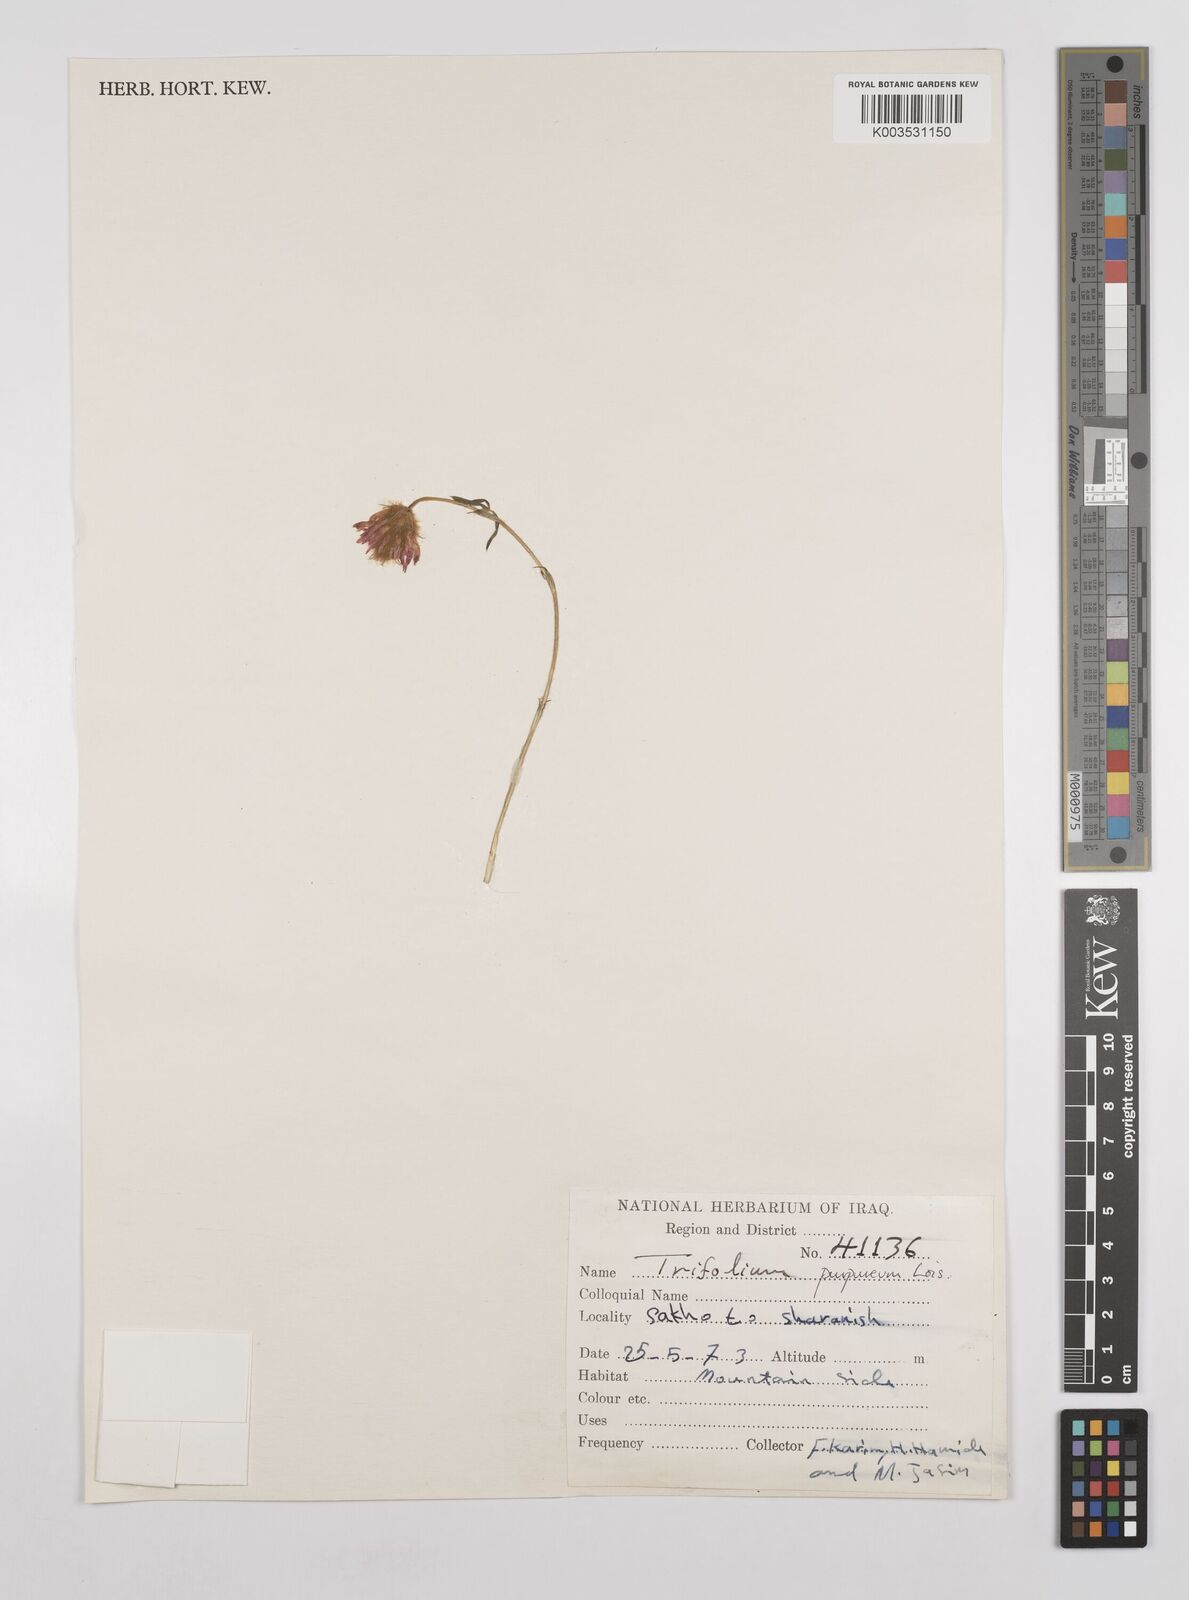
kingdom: Plantae
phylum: Tracheophyta
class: Magnoliopsida
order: Fabales
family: Fabaceae
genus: Trifolium
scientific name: Trifolium purpureum
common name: Purple clover
